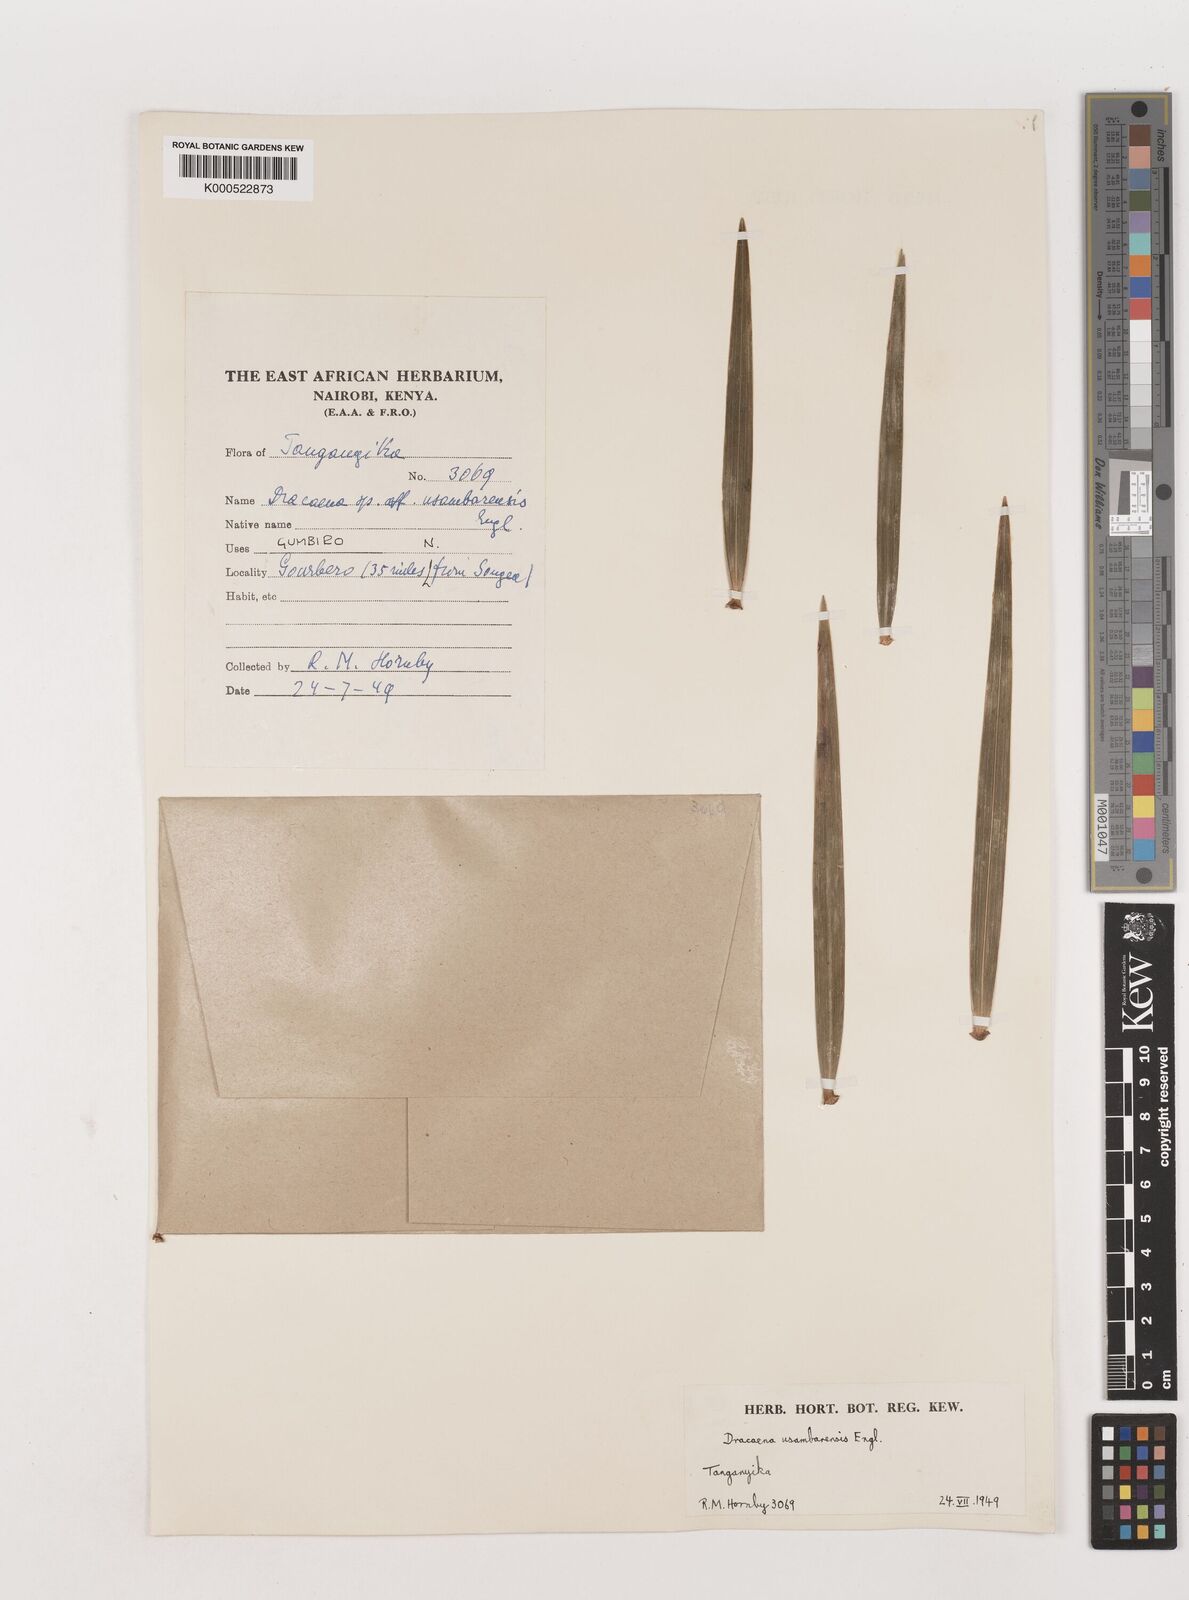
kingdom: Plantae
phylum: Tracheophyta
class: Liliopsida
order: Asparagales
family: Asparagaceae
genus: Dracaena
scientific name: Dracaena usambarensis
